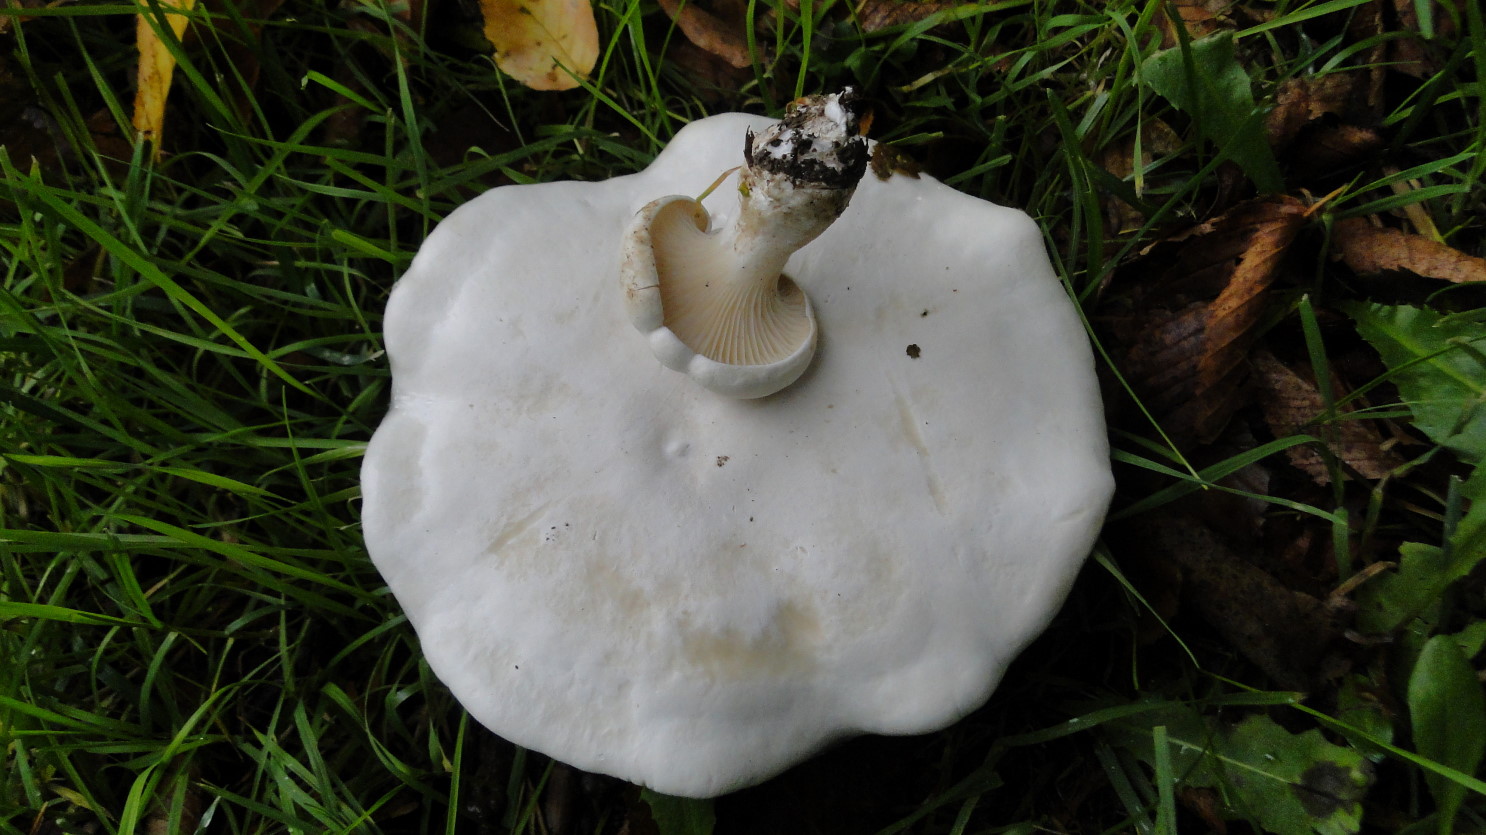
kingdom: Fungi
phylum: Basidiomycota
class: Agaricomycetes
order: Agaricales
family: Entolomataceae
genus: Clitopilus
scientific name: Clitopilus prunulus
